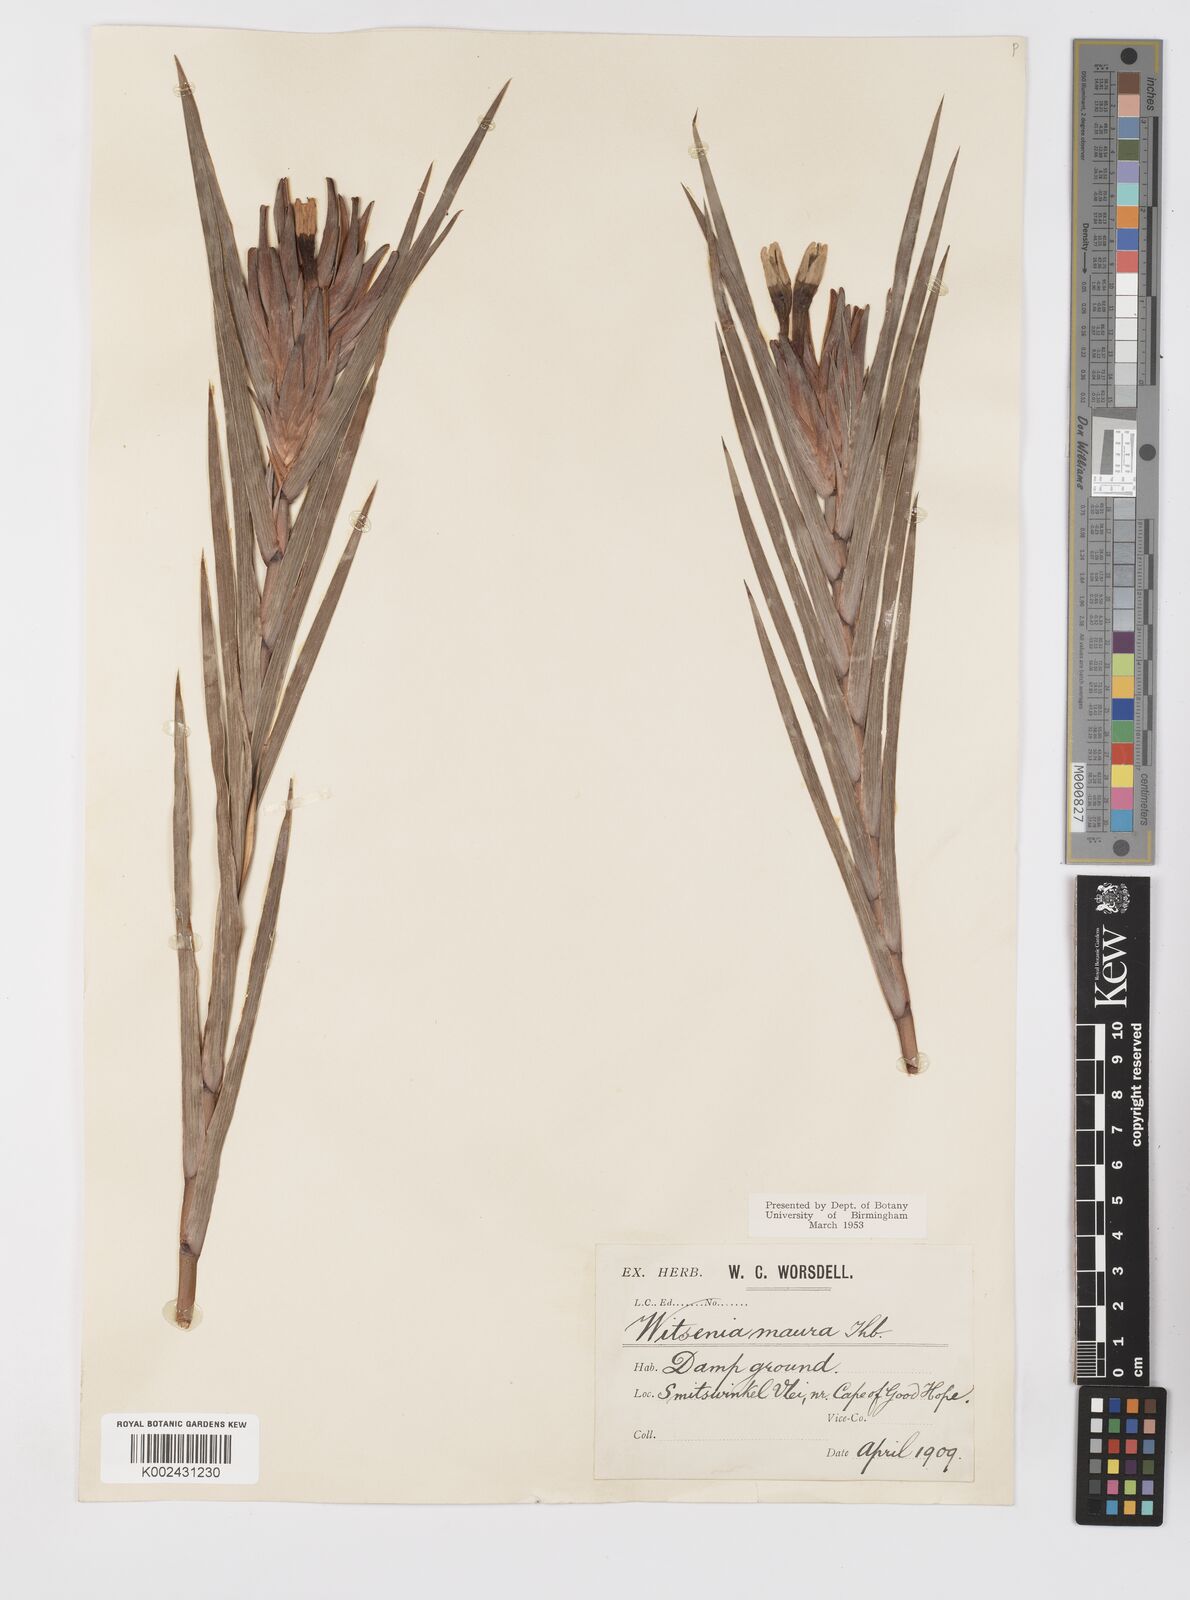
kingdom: Plantae
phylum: Tracheophyta
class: Liliopsida
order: Asparagales
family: Iridaceae
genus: Witsenia
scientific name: Witsenia maura
